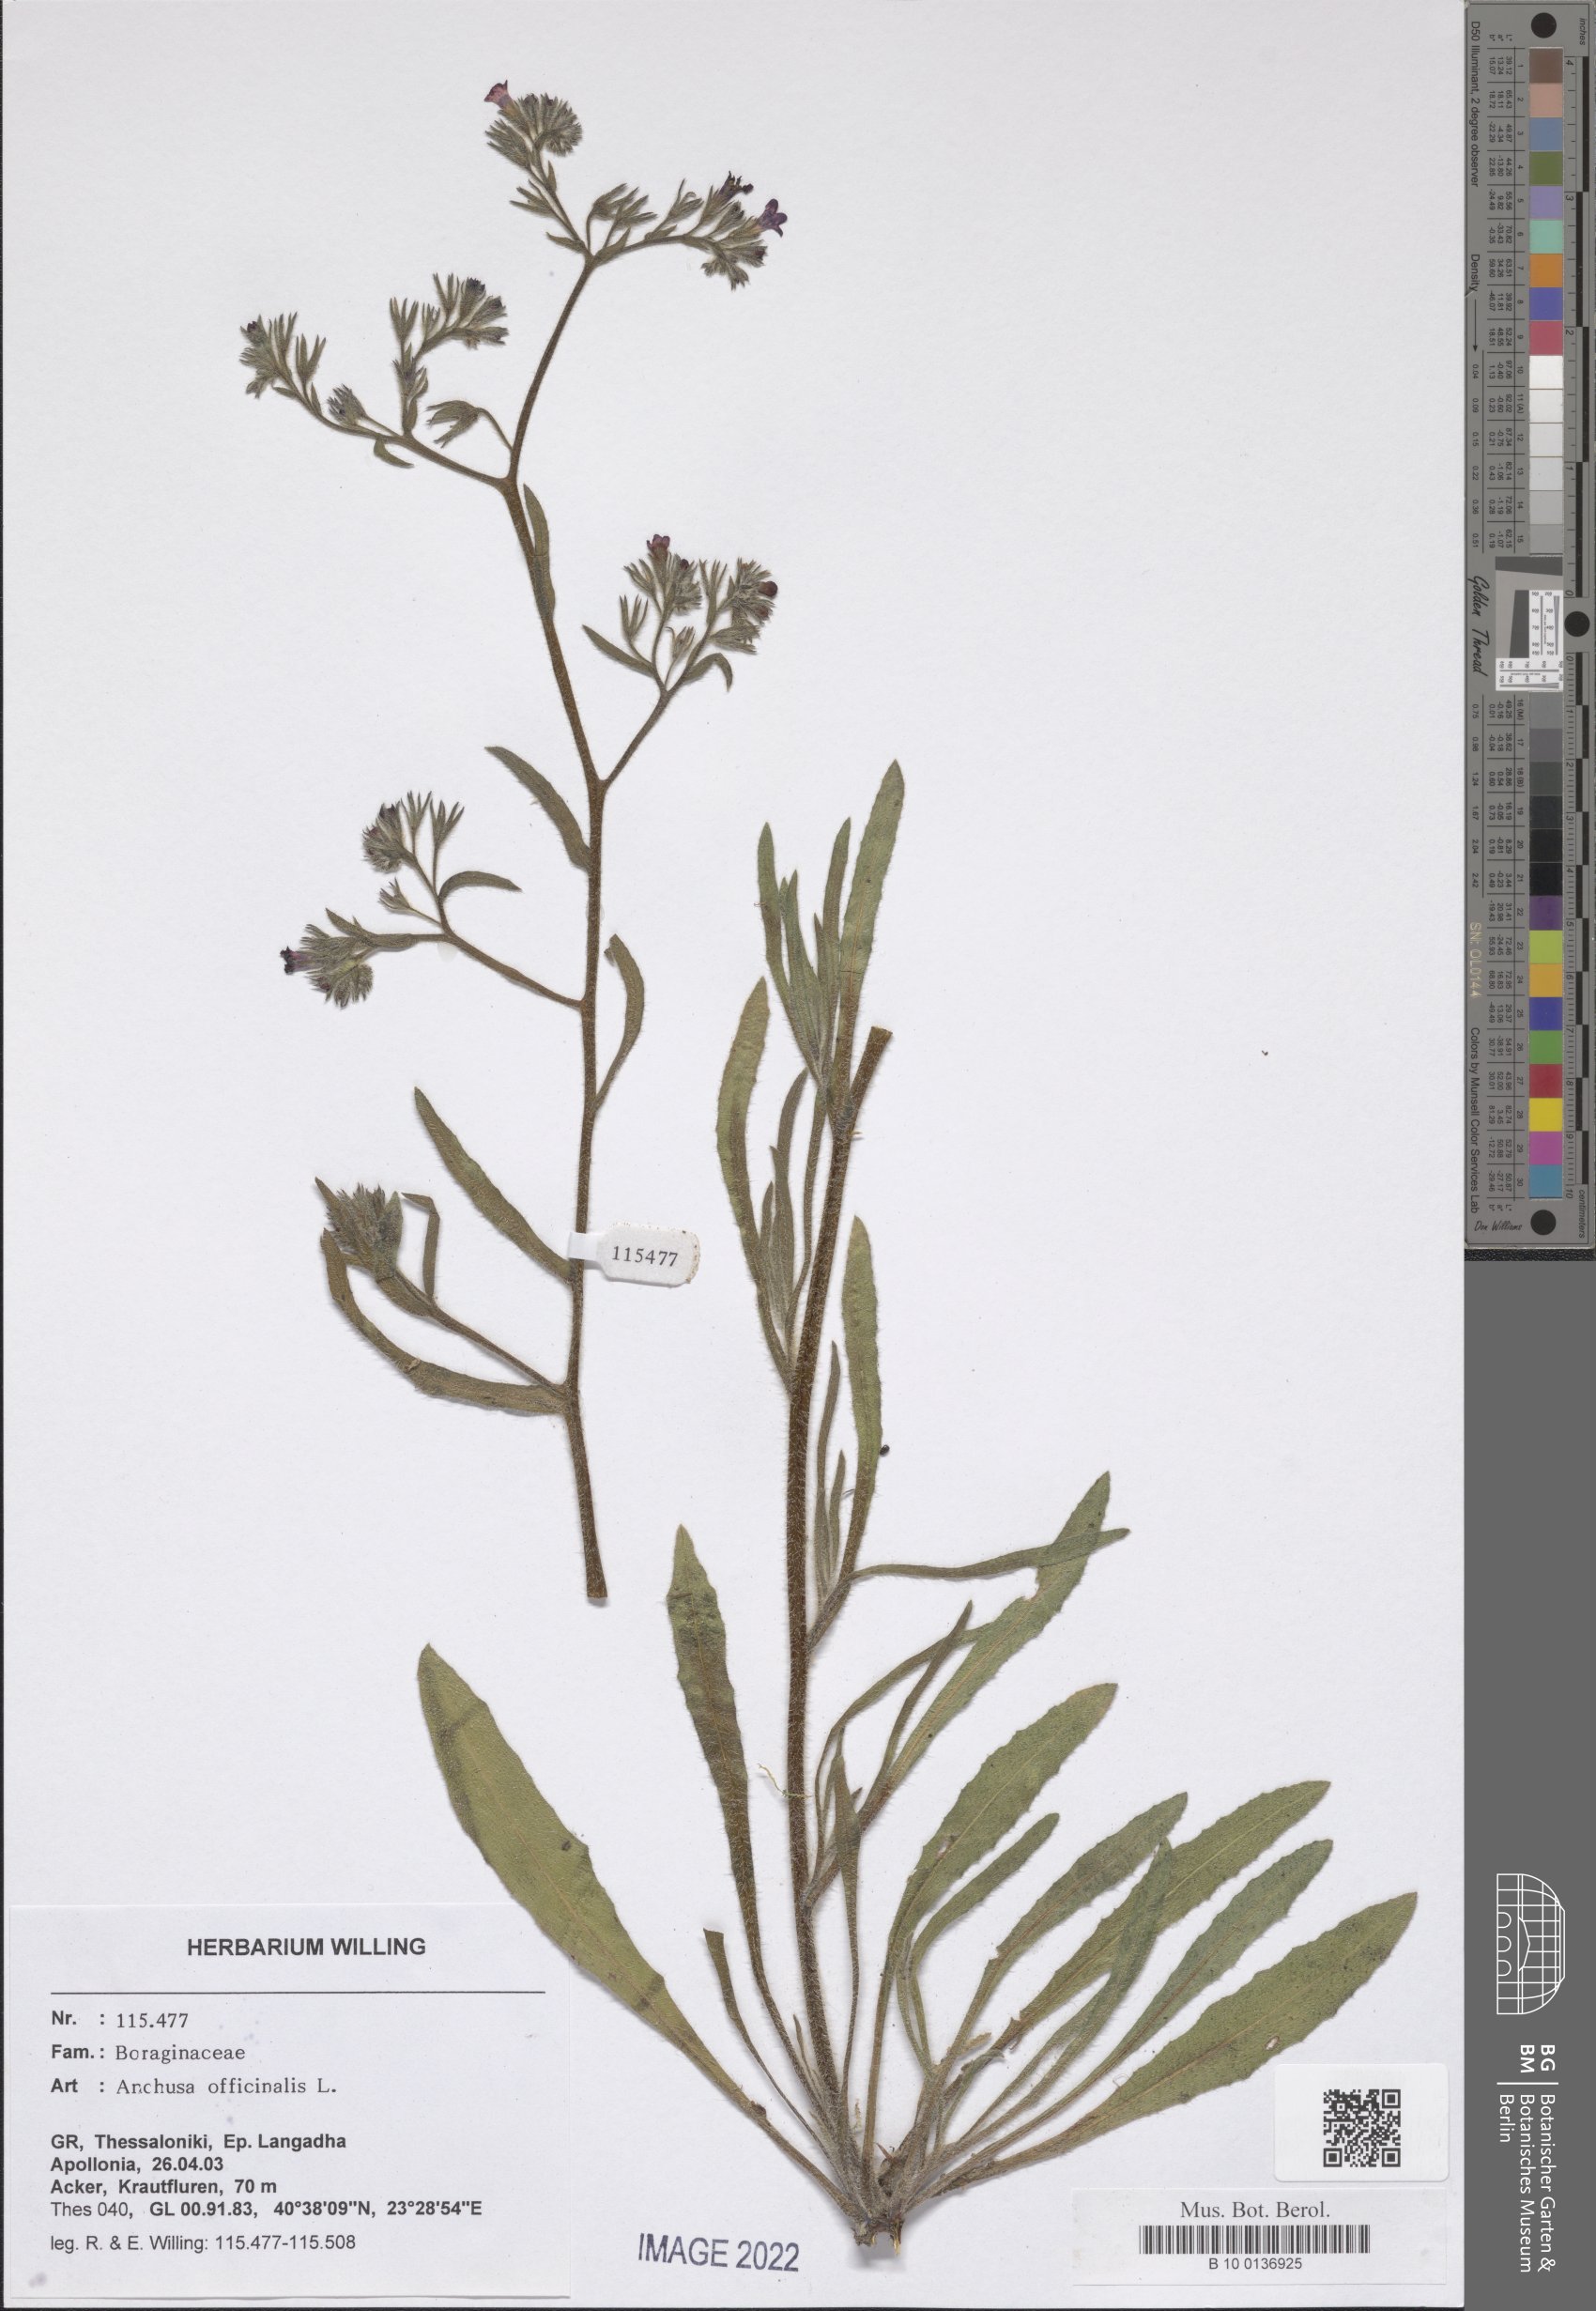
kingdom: Plantae
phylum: Tracheophyta
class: Magnoliopsida
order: Boraginales
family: Boraginaceae
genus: Anchusa
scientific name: Anchusa officinalis
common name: Alkanet
